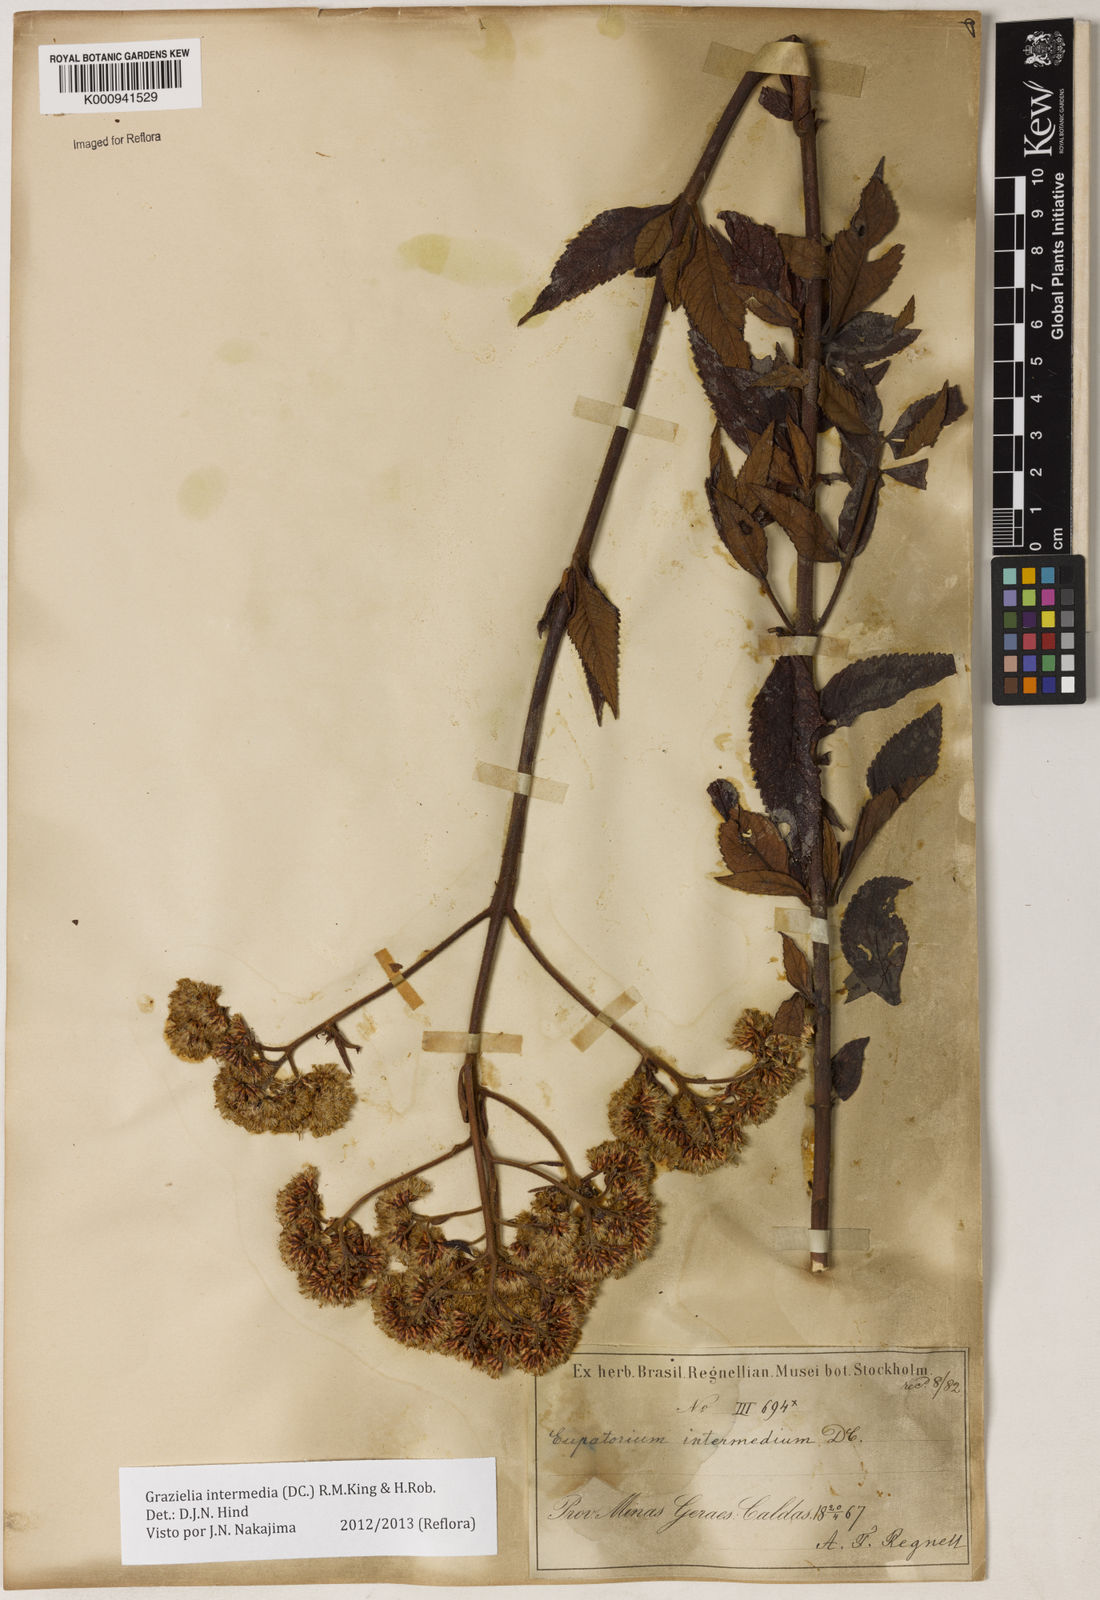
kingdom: Plantae
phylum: Tracheophyta
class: Magnoliopsida
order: Asterales
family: Asteraceae
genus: Grazielia
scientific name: Grazielia intermedia
